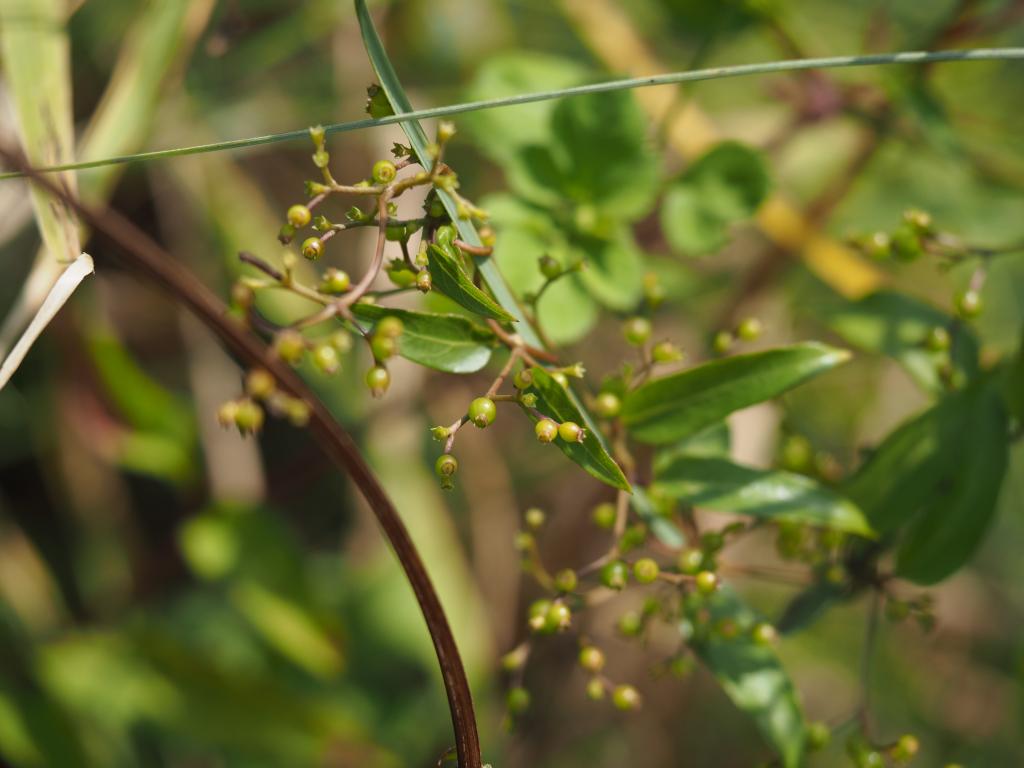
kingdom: Plantae
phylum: Tracheophyta
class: Magnoliopsida
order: Gentianales
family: Rubiaceae
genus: Paederia
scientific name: Paederia foetida
